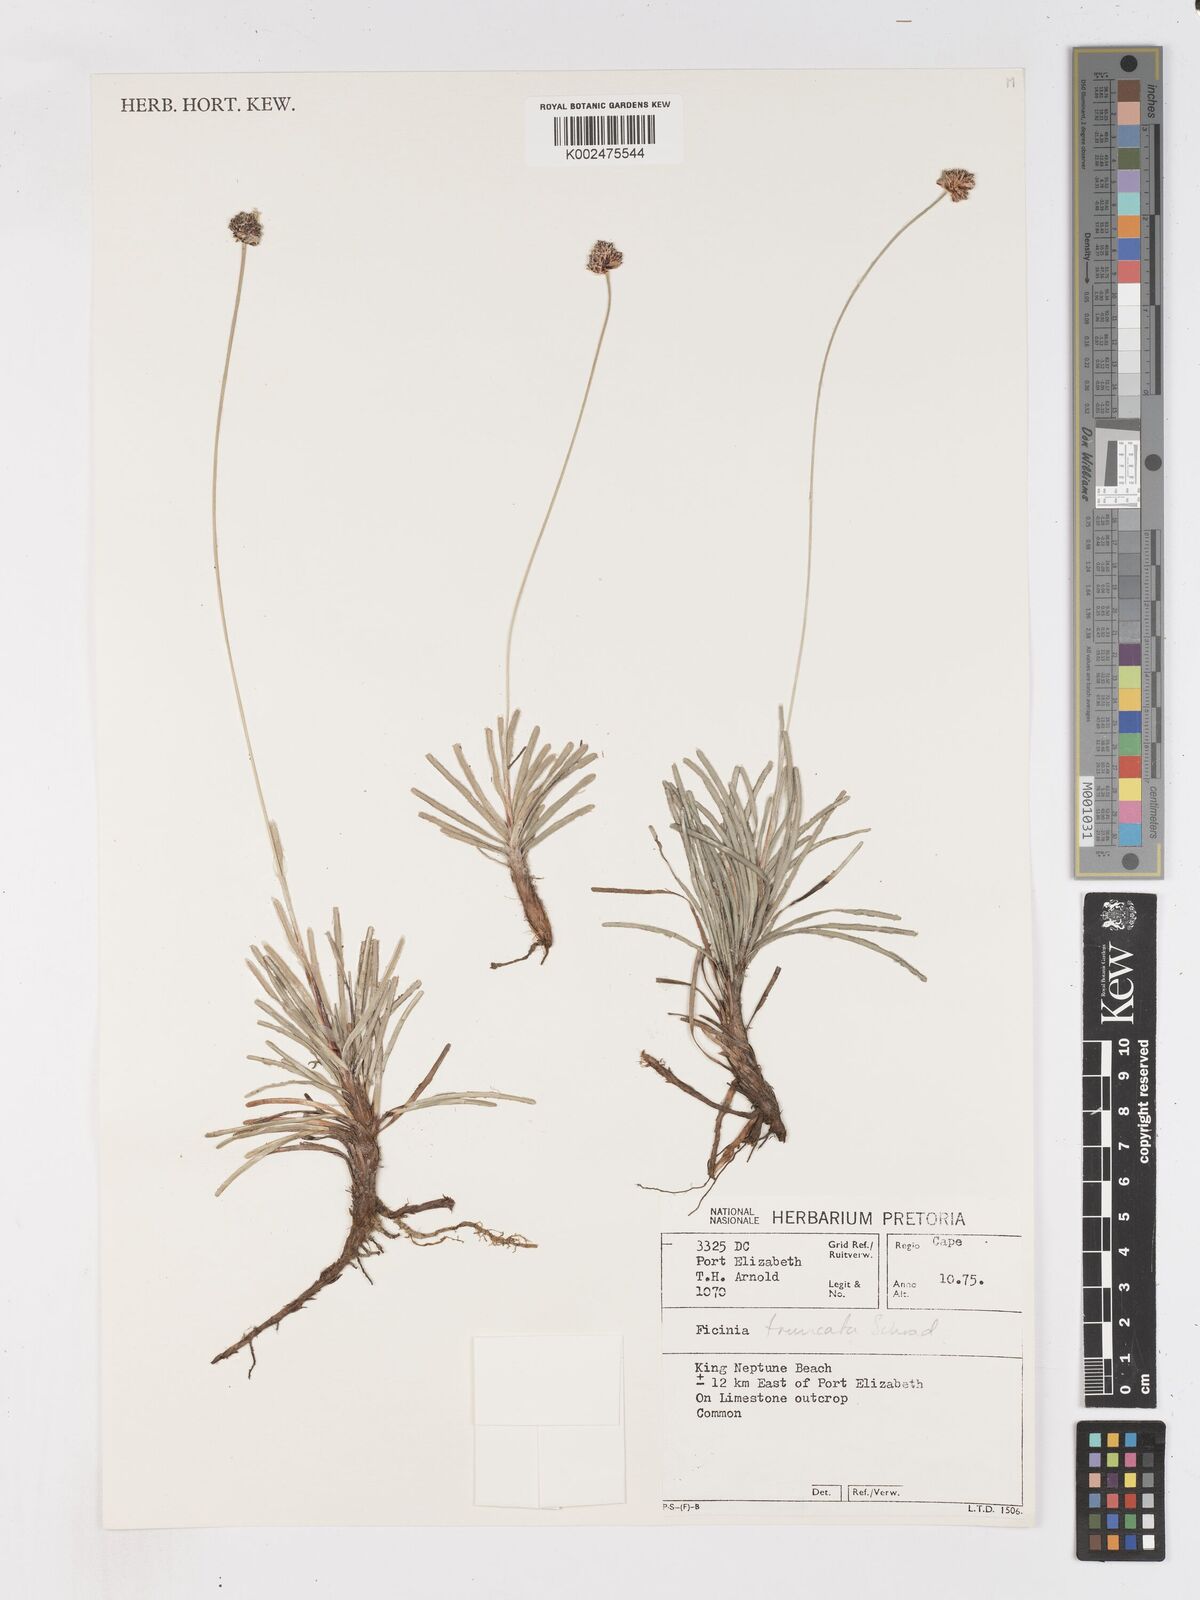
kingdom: Plantae
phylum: Tracheophyta
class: Liliopsida
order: Poales
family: Cyperaceae
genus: Ficinia
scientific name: Ficinia truncata
